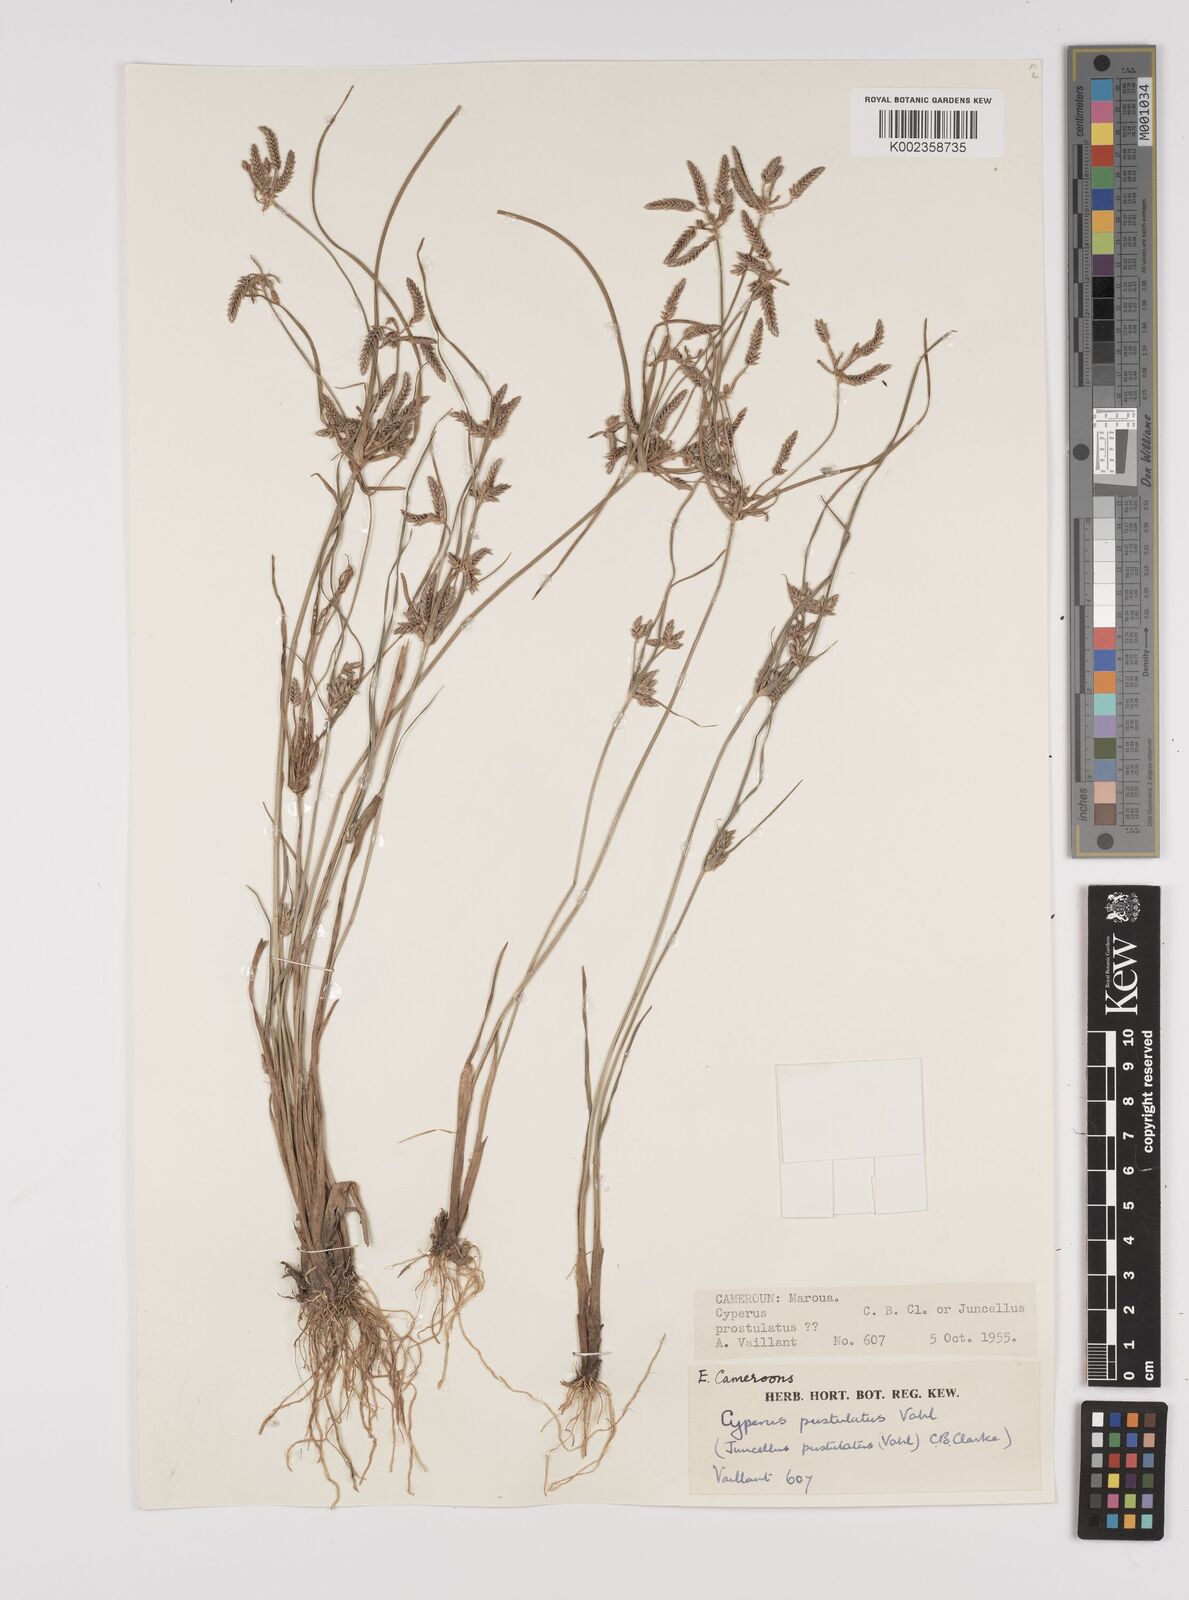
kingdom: Plantae
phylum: Tracheophyta
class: Liliopsida
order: Poales
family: Cyperaceae
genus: Cyperus
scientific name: Cyperus pustulatus
